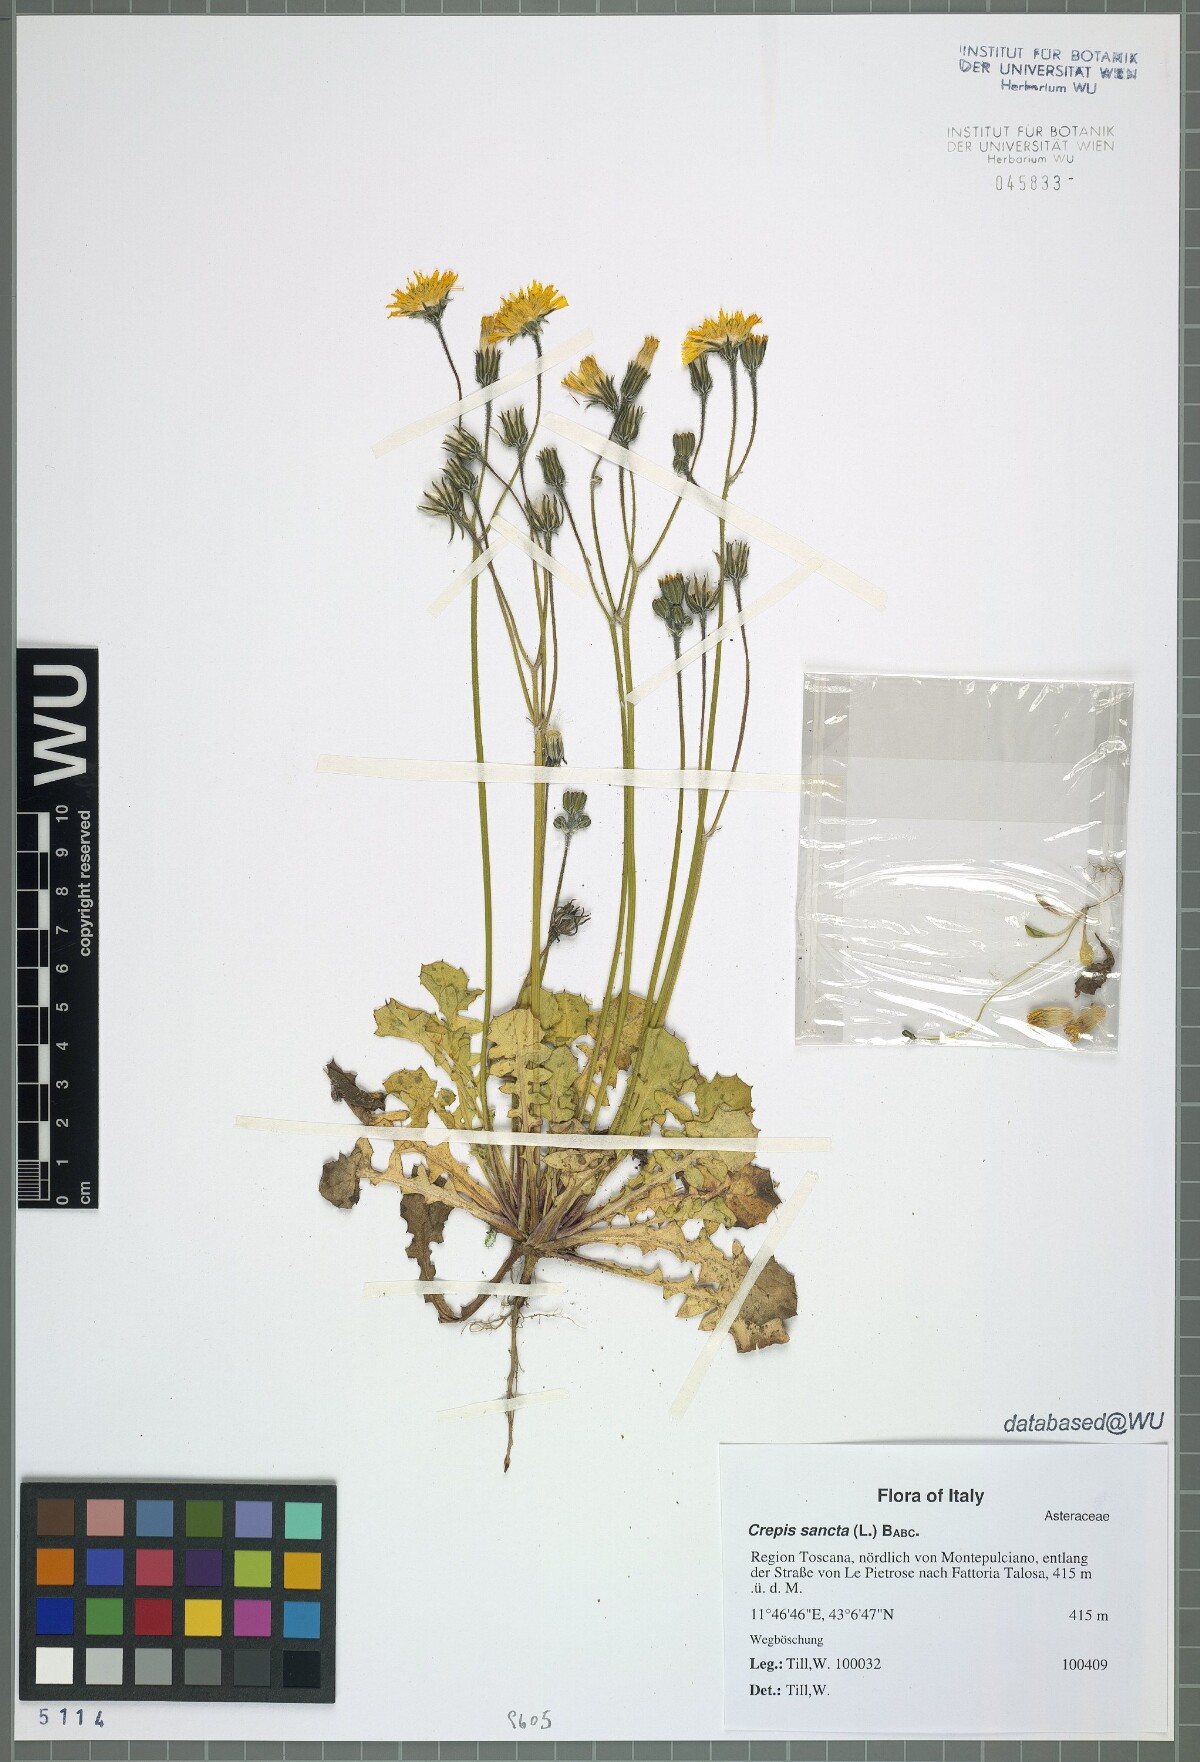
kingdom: Plantae
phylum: Tracheophyta
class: Magnoliopsida
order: Asterales
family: Asteraceae
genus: Crepis
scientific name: Crepis sancta
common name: Hawk's-beard
